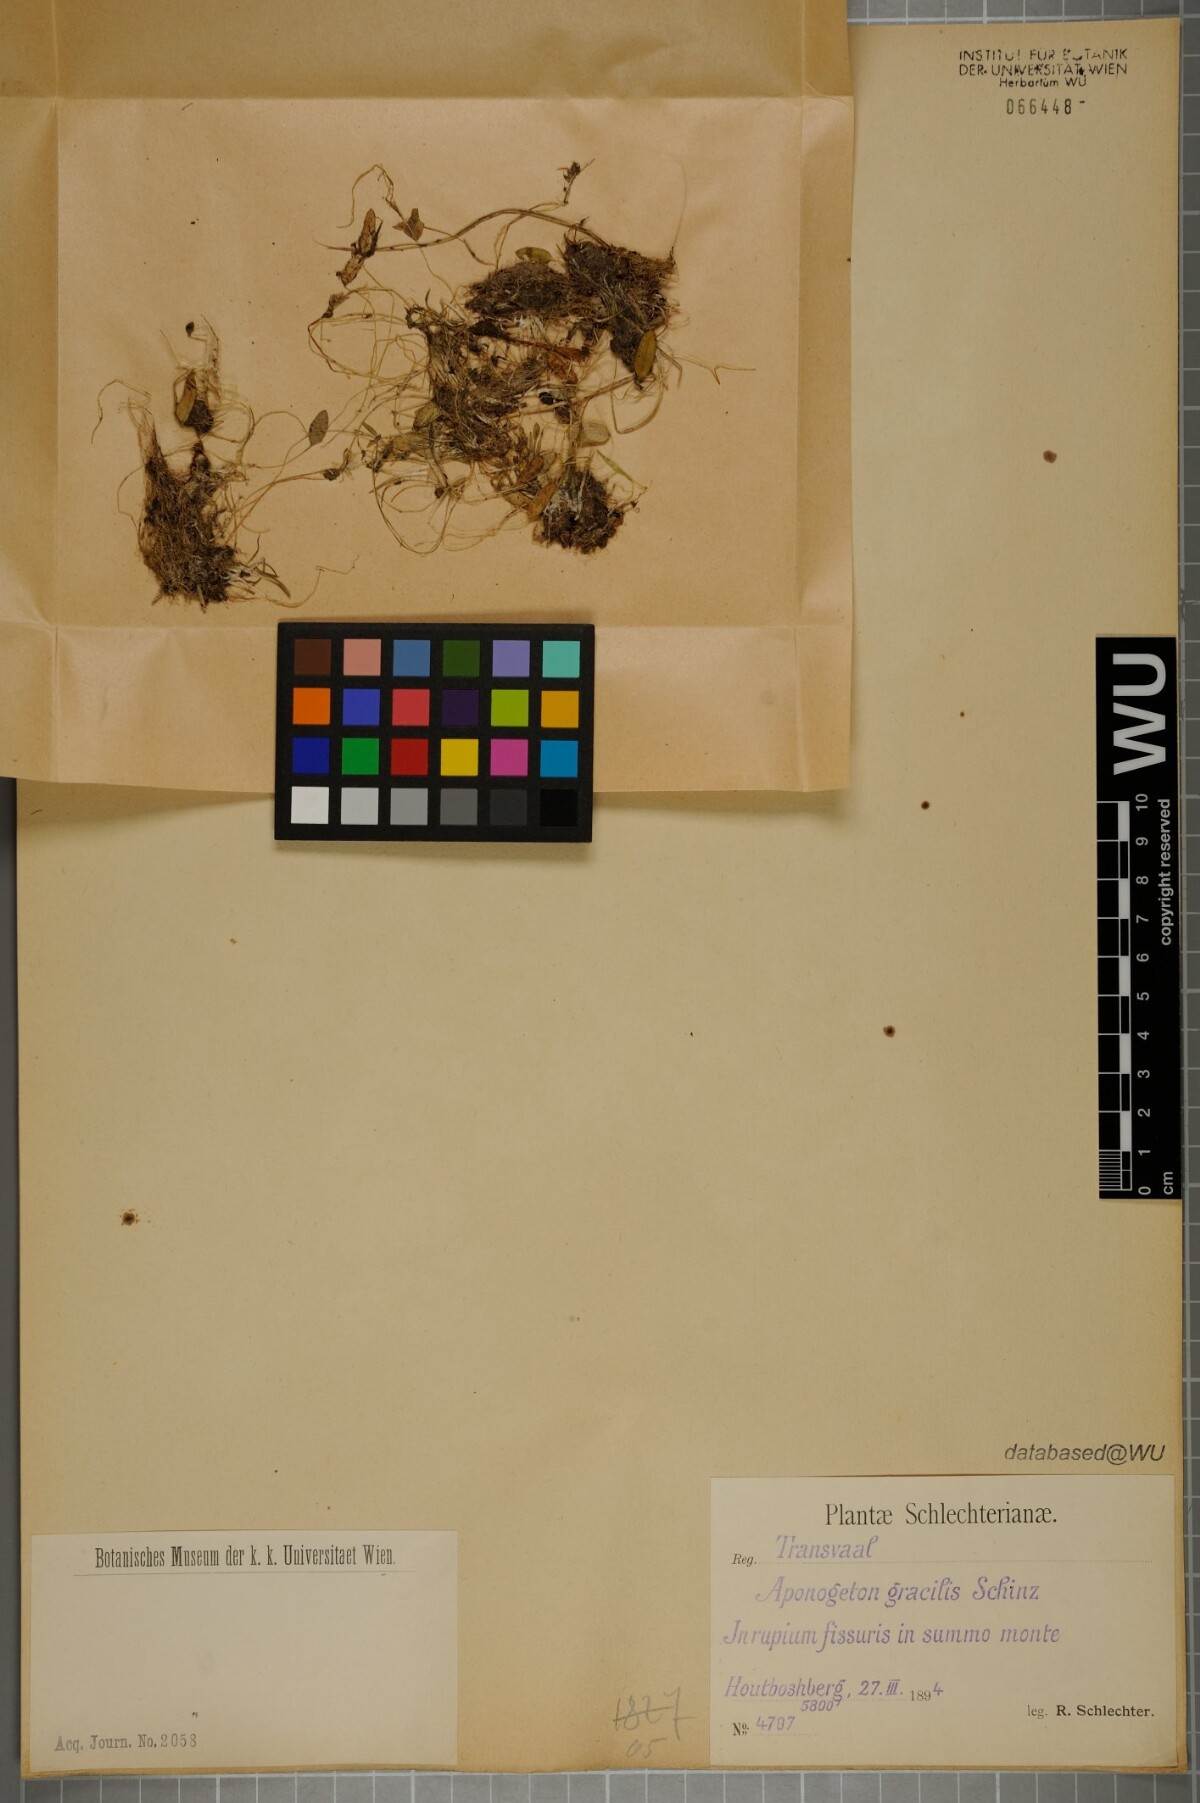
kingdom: Plantae
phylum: Tracheophyta
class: Liliopsida
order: Alismatales
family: Aponogetonaceae
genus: Aponogeton
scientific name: Aponogeton
